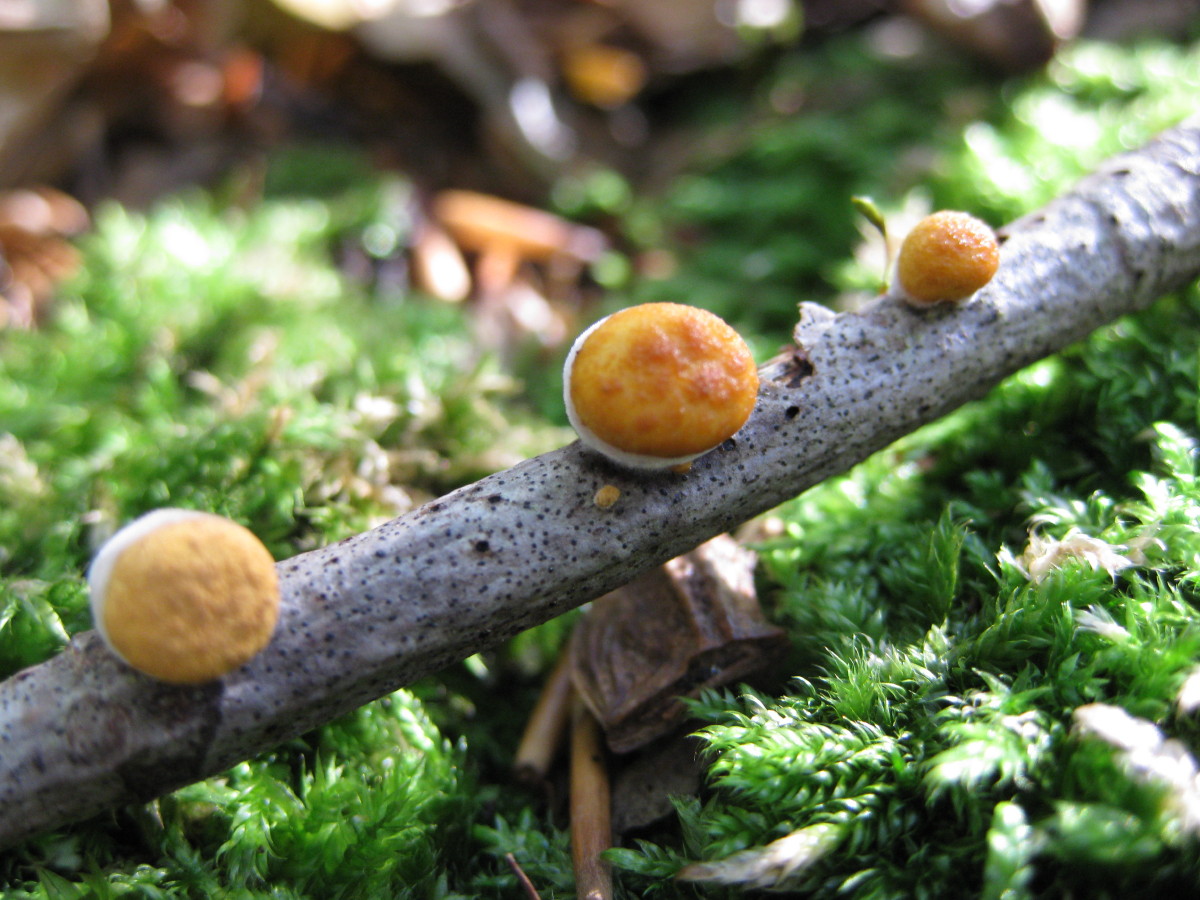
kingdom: Fungi
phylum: Basidiomycota
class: Agaricomycetes
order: Agaricales
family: Nidulariaceae
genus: Crucibulum
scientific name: Crucibulum crucibuliforme
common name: krukkesvamp
